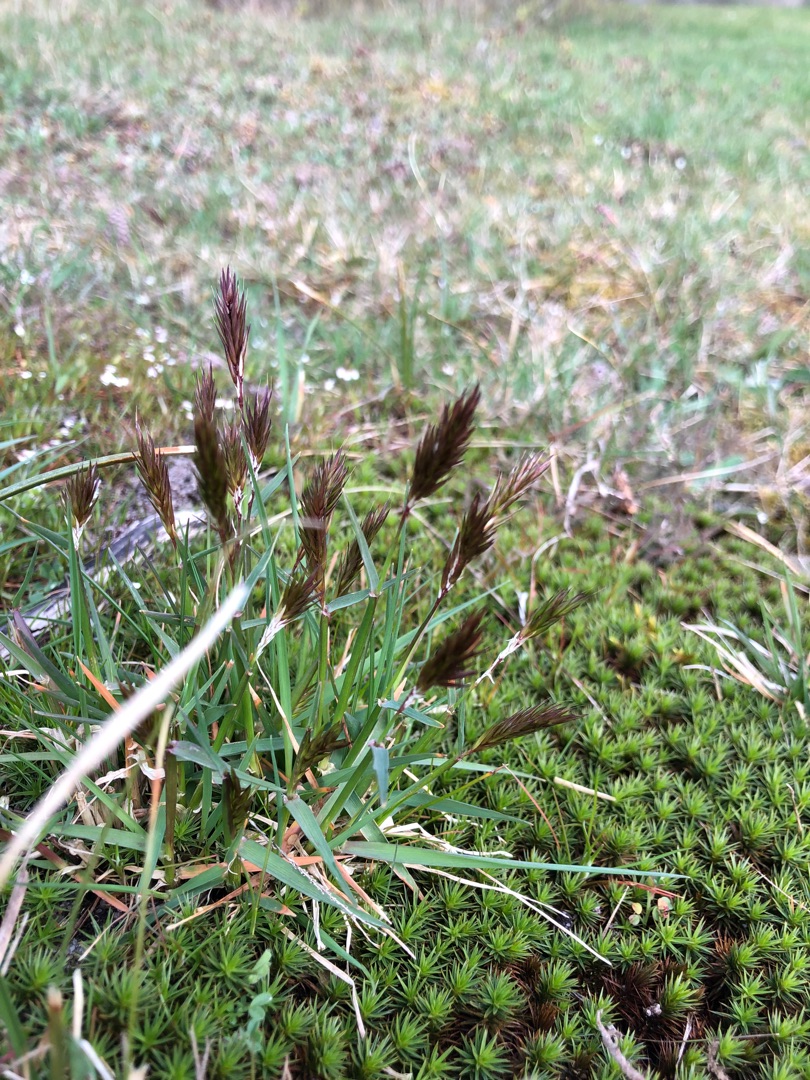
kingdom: Plantae
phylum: Tracheophyta
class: Liliopsida
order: Poales
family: Poaceae
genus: Anthoxanthum
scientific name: Anthoxanthum odoratum
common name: Vellugtende gulaks
